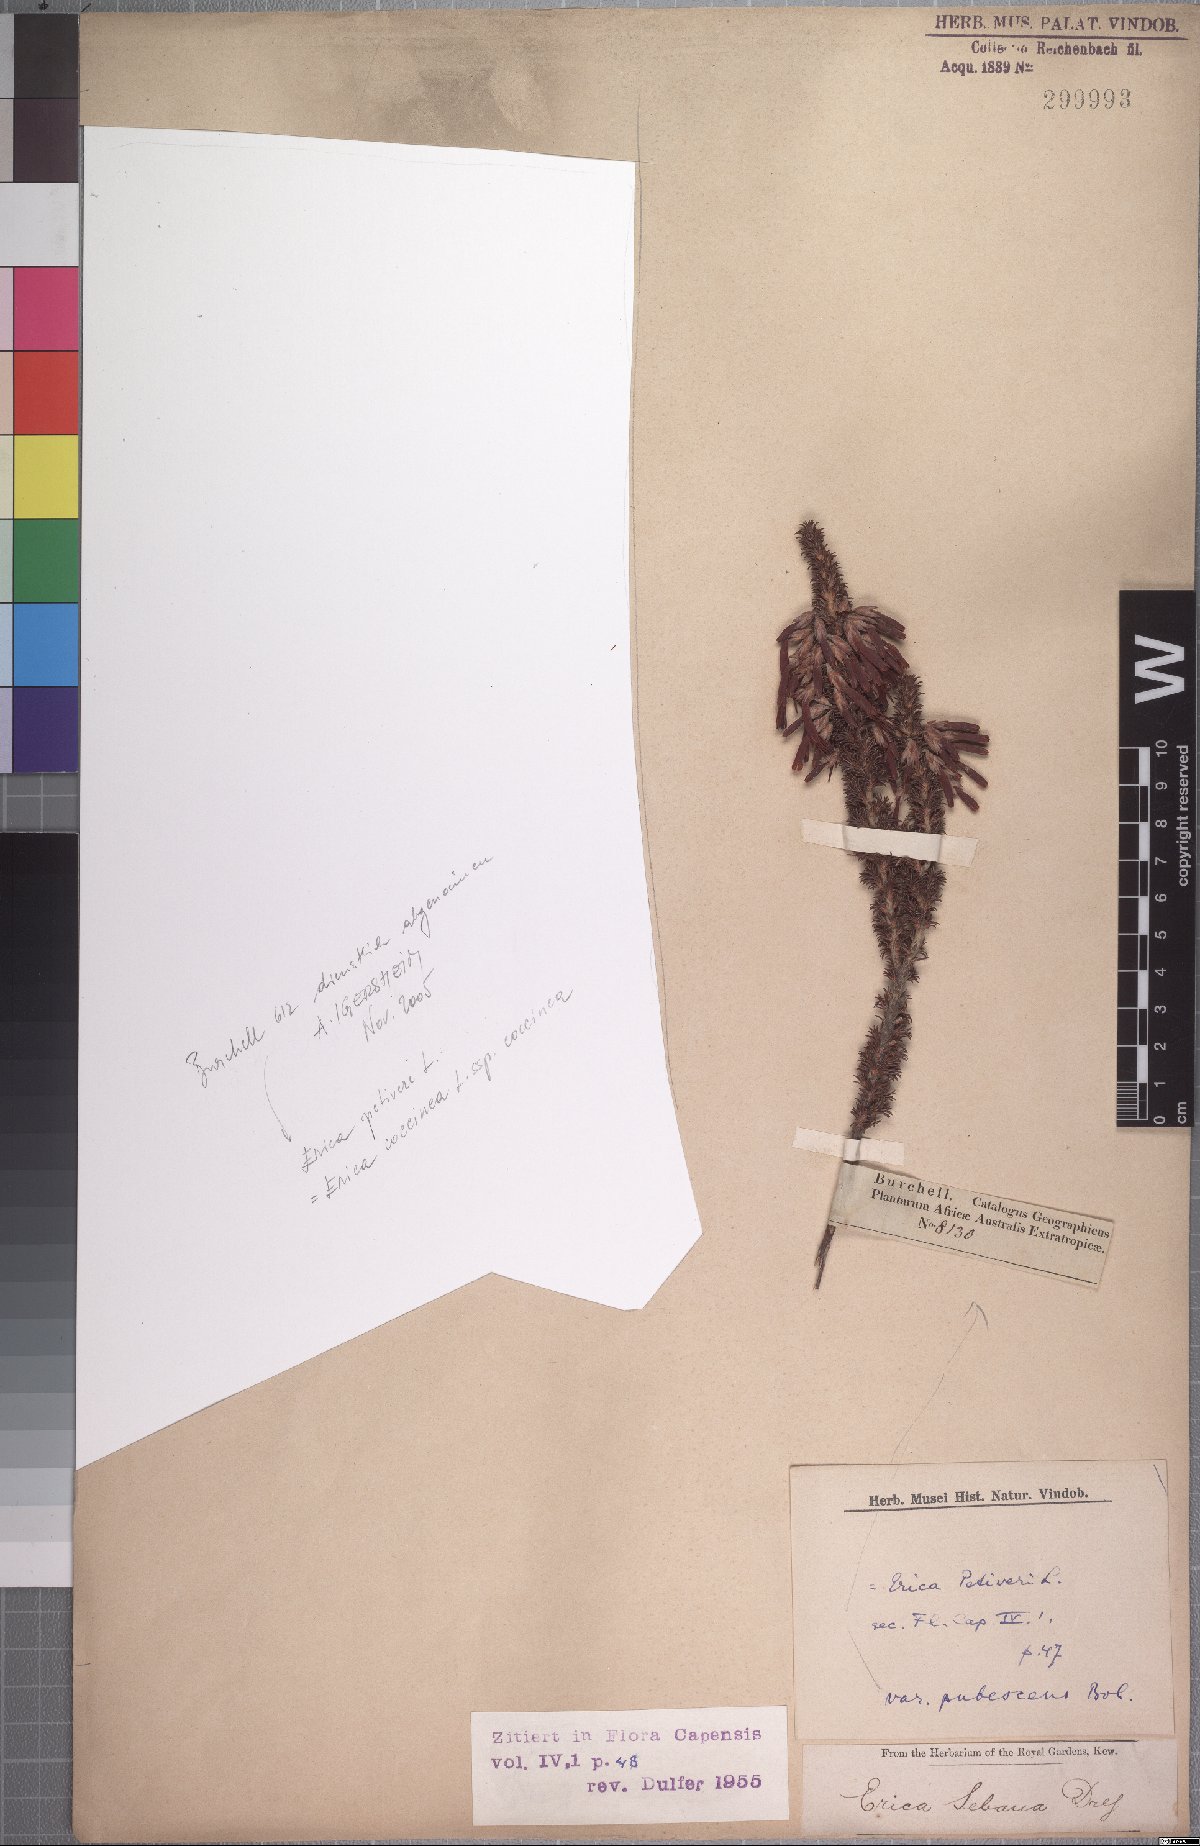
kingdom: Plantae
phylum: Tracheophyta
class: Magnoliopsida
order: Ericales
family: Ericaceae
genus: Erica
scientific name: Erica abietina
